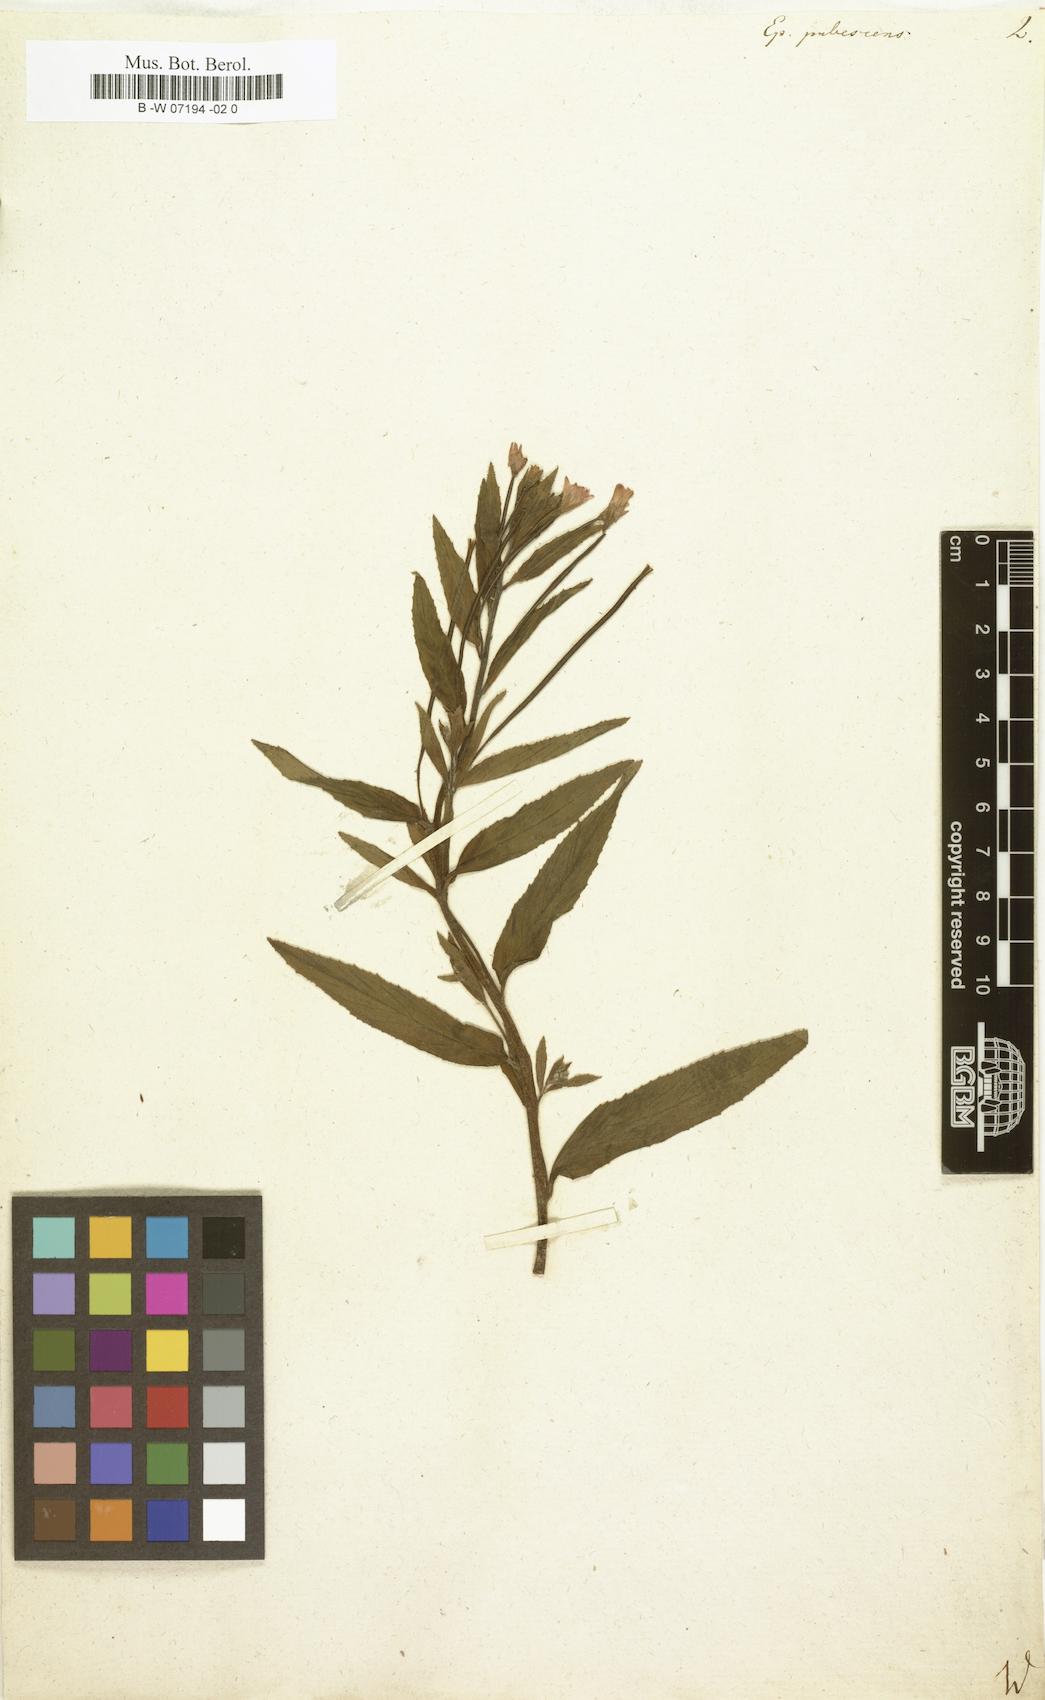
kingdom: Plantae
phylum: Tracheophyta
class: Magnoliopsida
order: Myrtales
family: Onagraceae
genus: Epilobium
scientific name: Epilobium
